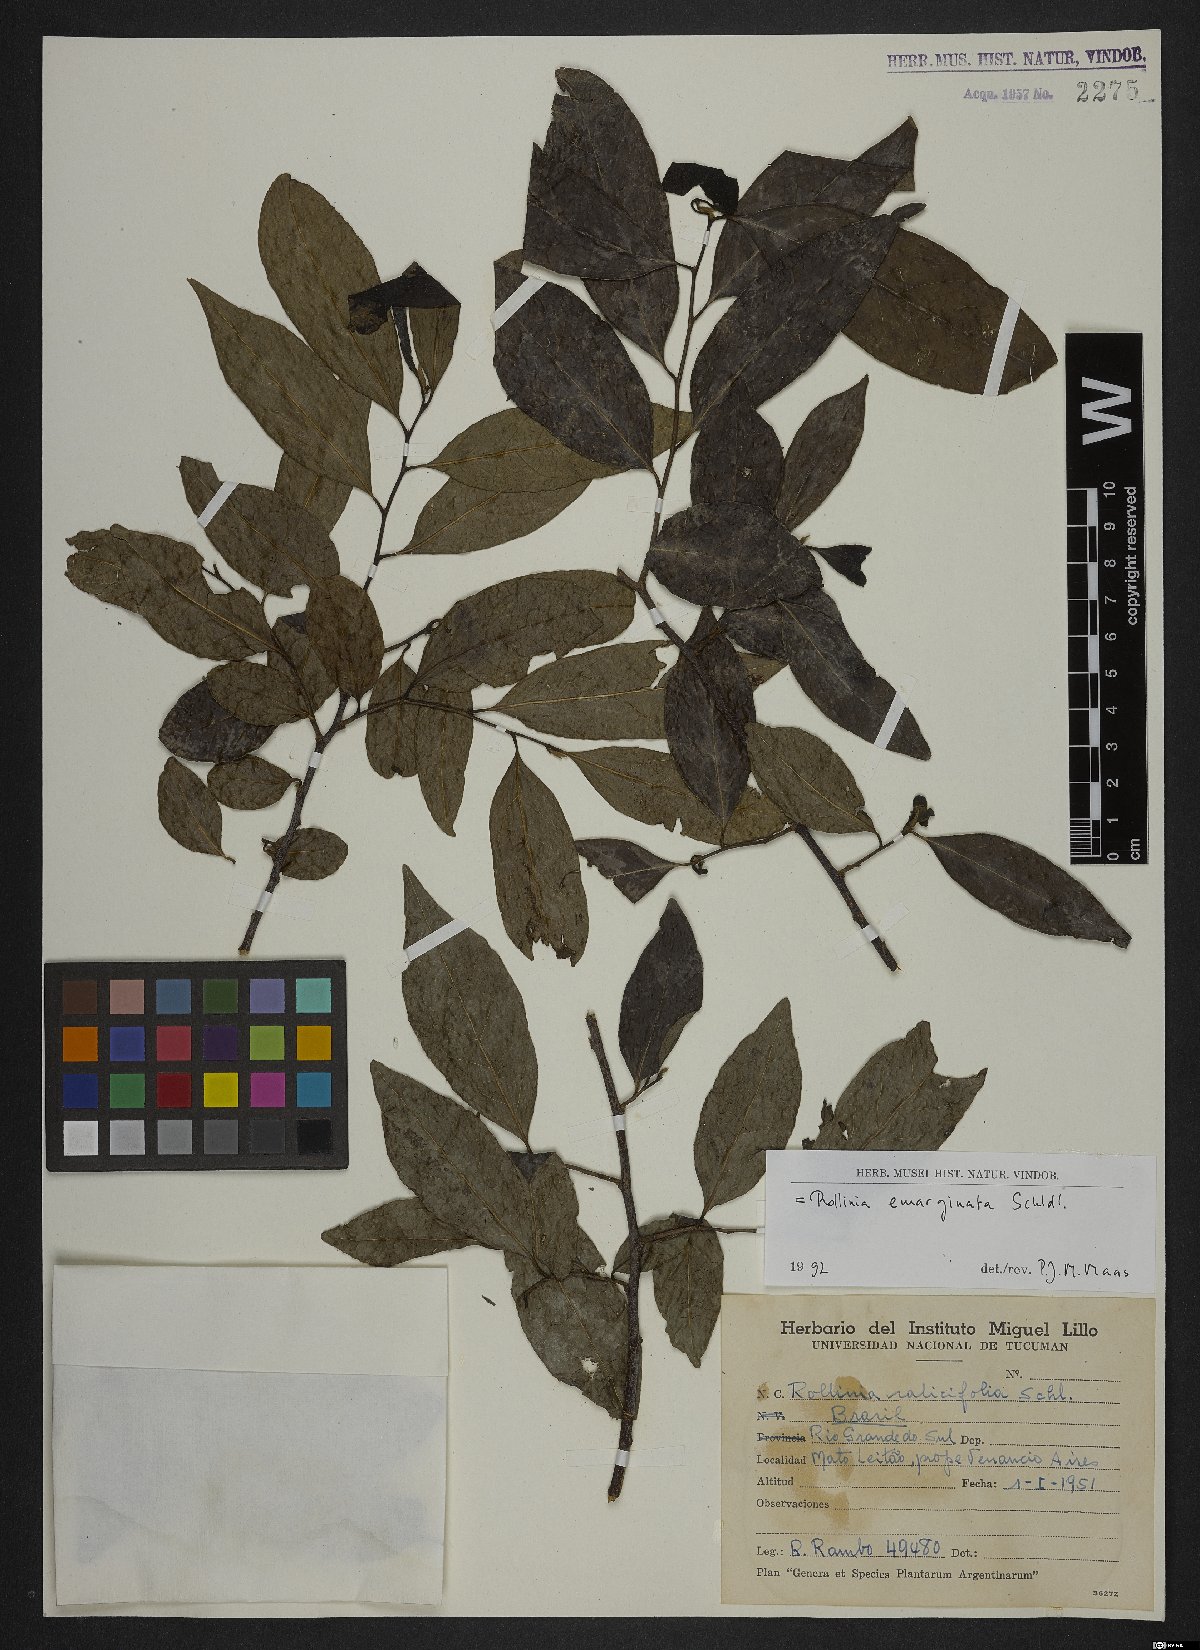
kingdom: Plantae
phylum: Tracheophyta
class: Magnoliopsida
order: Magnoliales
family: Annonaceae
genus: Annona
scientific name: Annona emarginata
